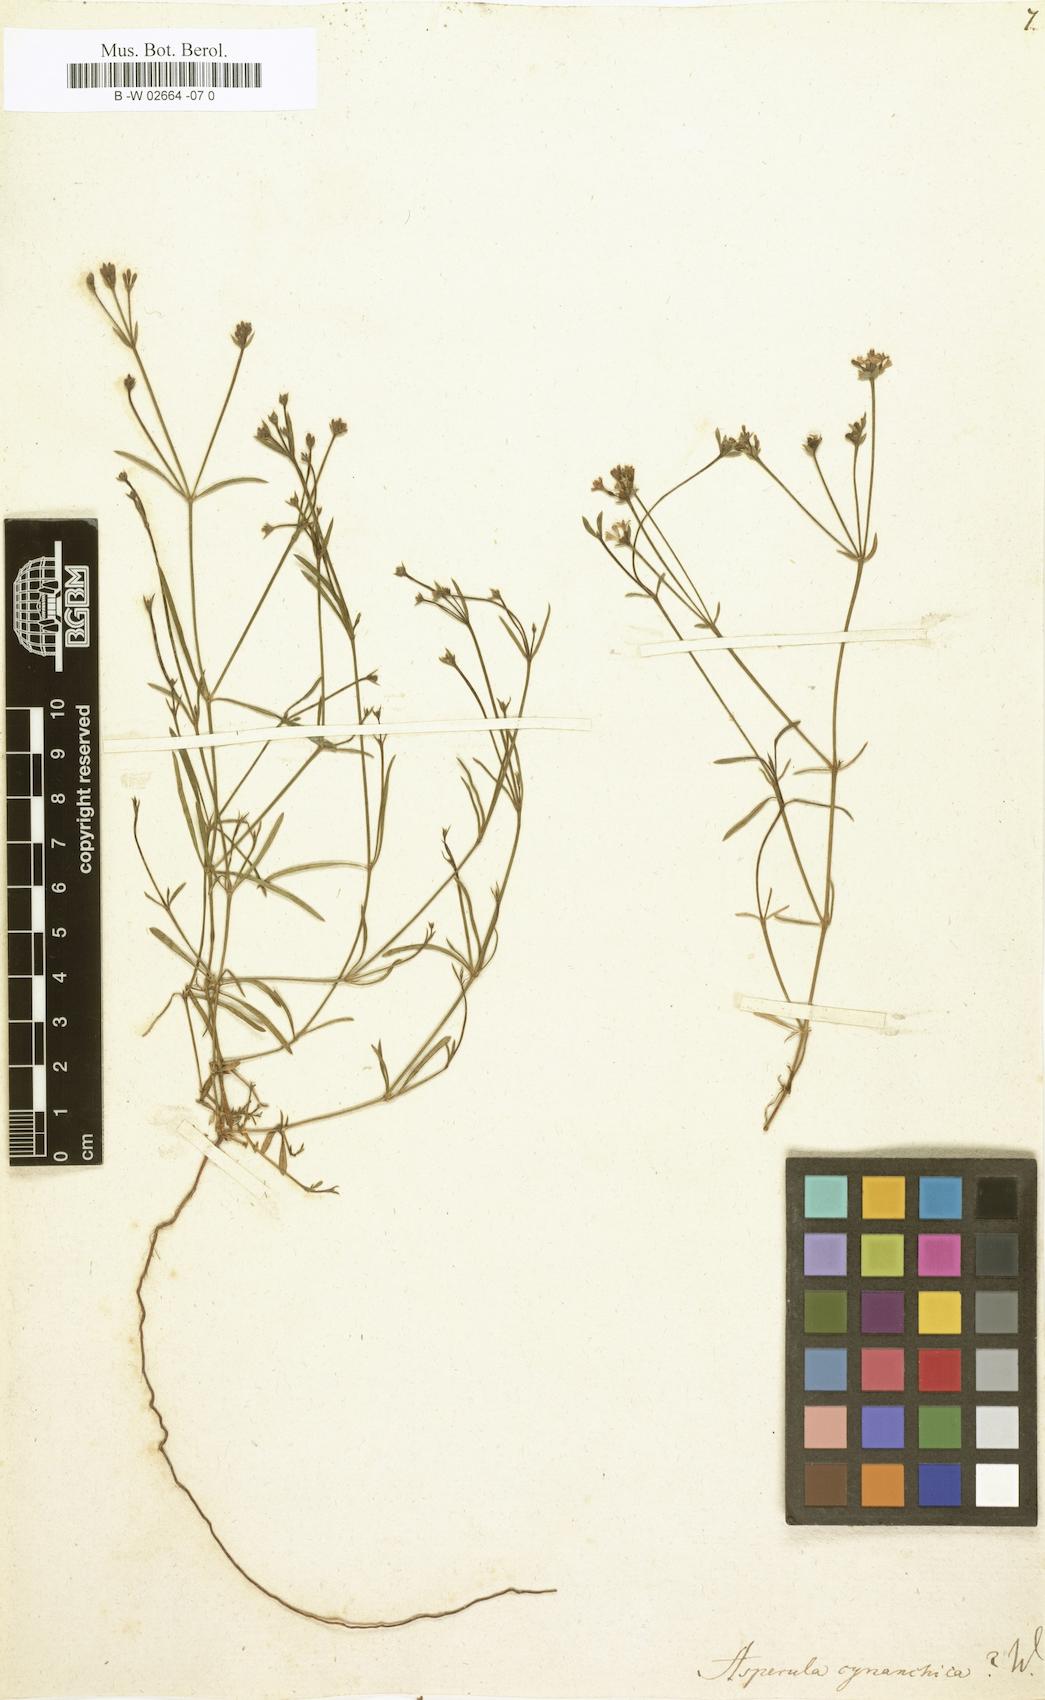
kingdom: Plantae
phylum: Tracheophyta
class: Magnoliopsida
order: Gentianales
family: Rubiaceae
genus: Cynanchica
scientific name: Cynanchica pyrenaica
